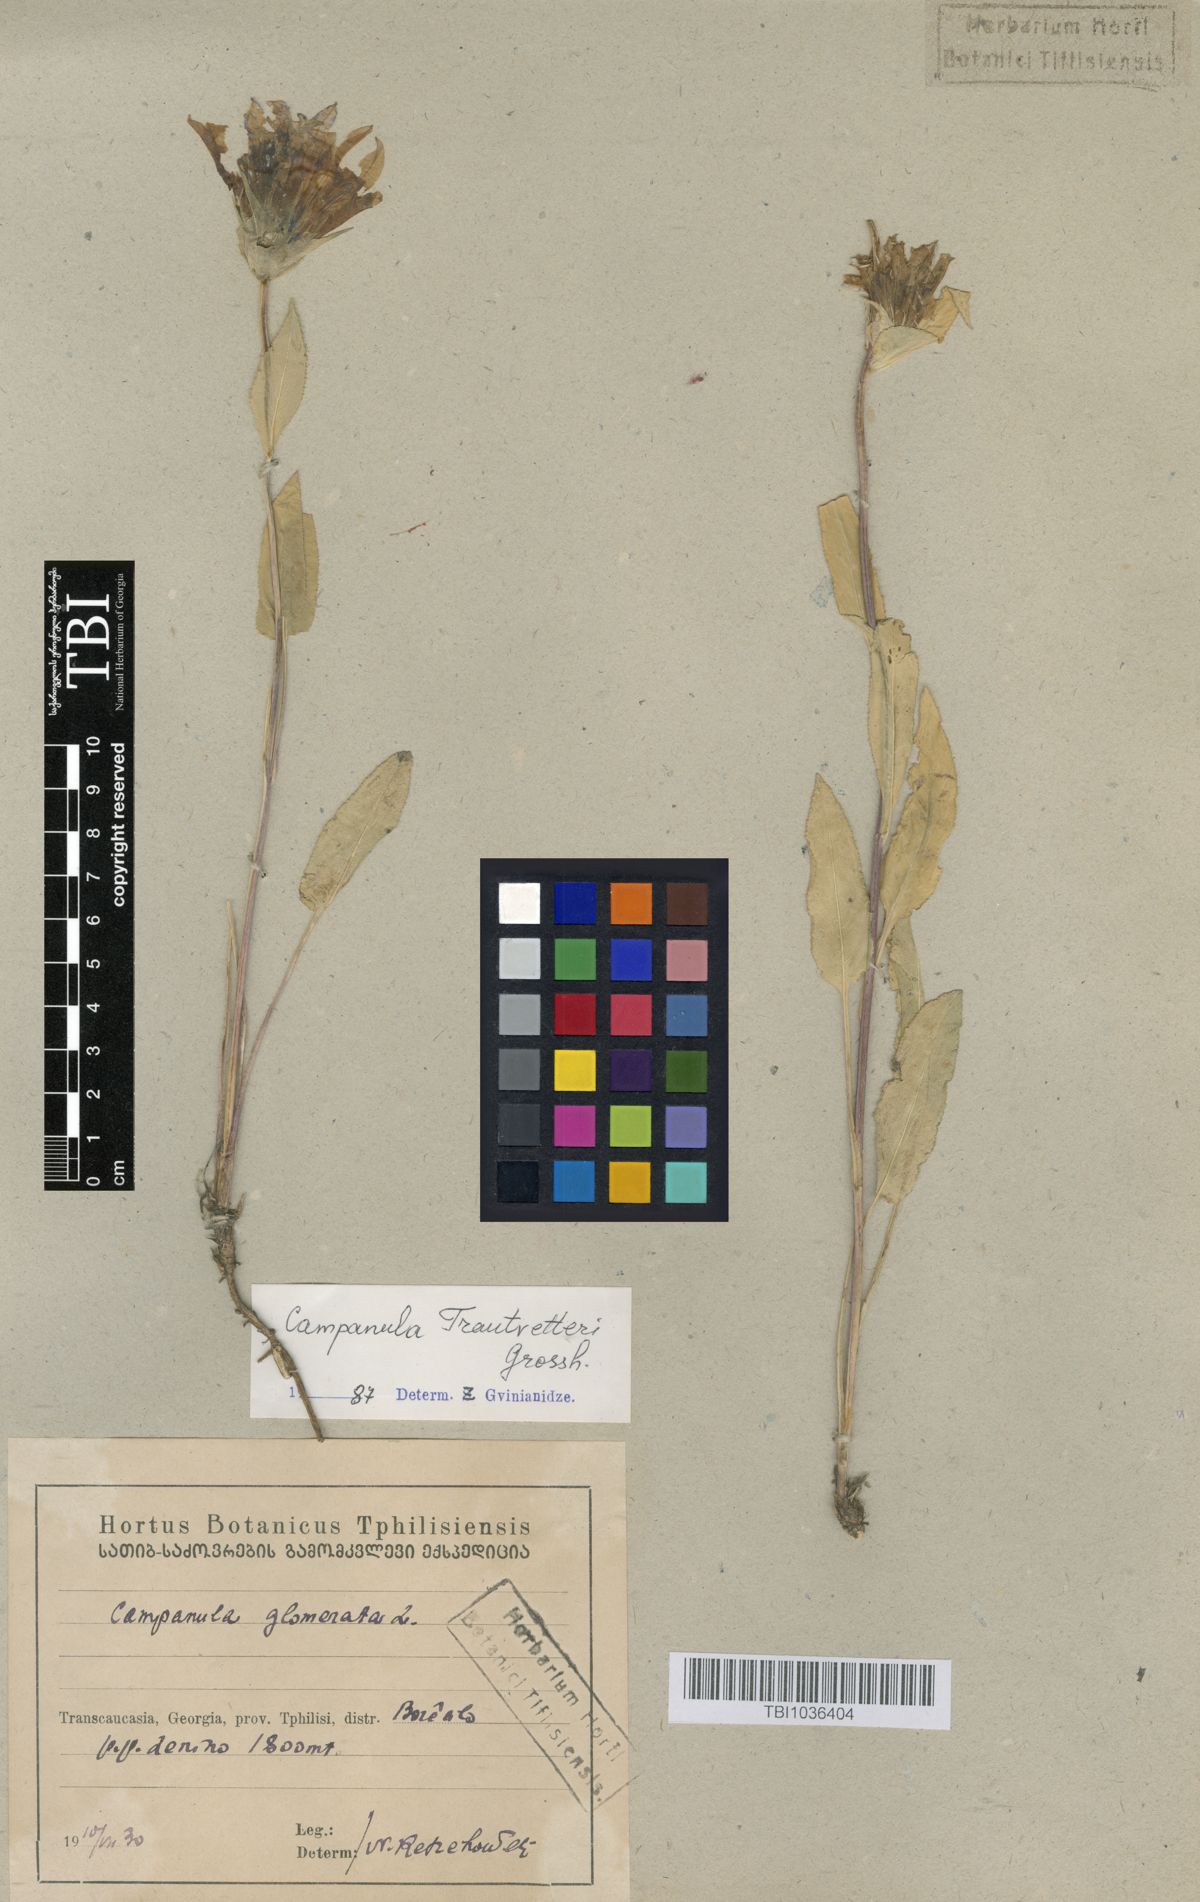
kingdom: Plantae
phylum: Tracheophyta
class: Magnoliopsida
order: Asterales
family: Campanulaceae
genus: Campanula
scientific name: Campanula glomerata
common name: Clustered bellflower
